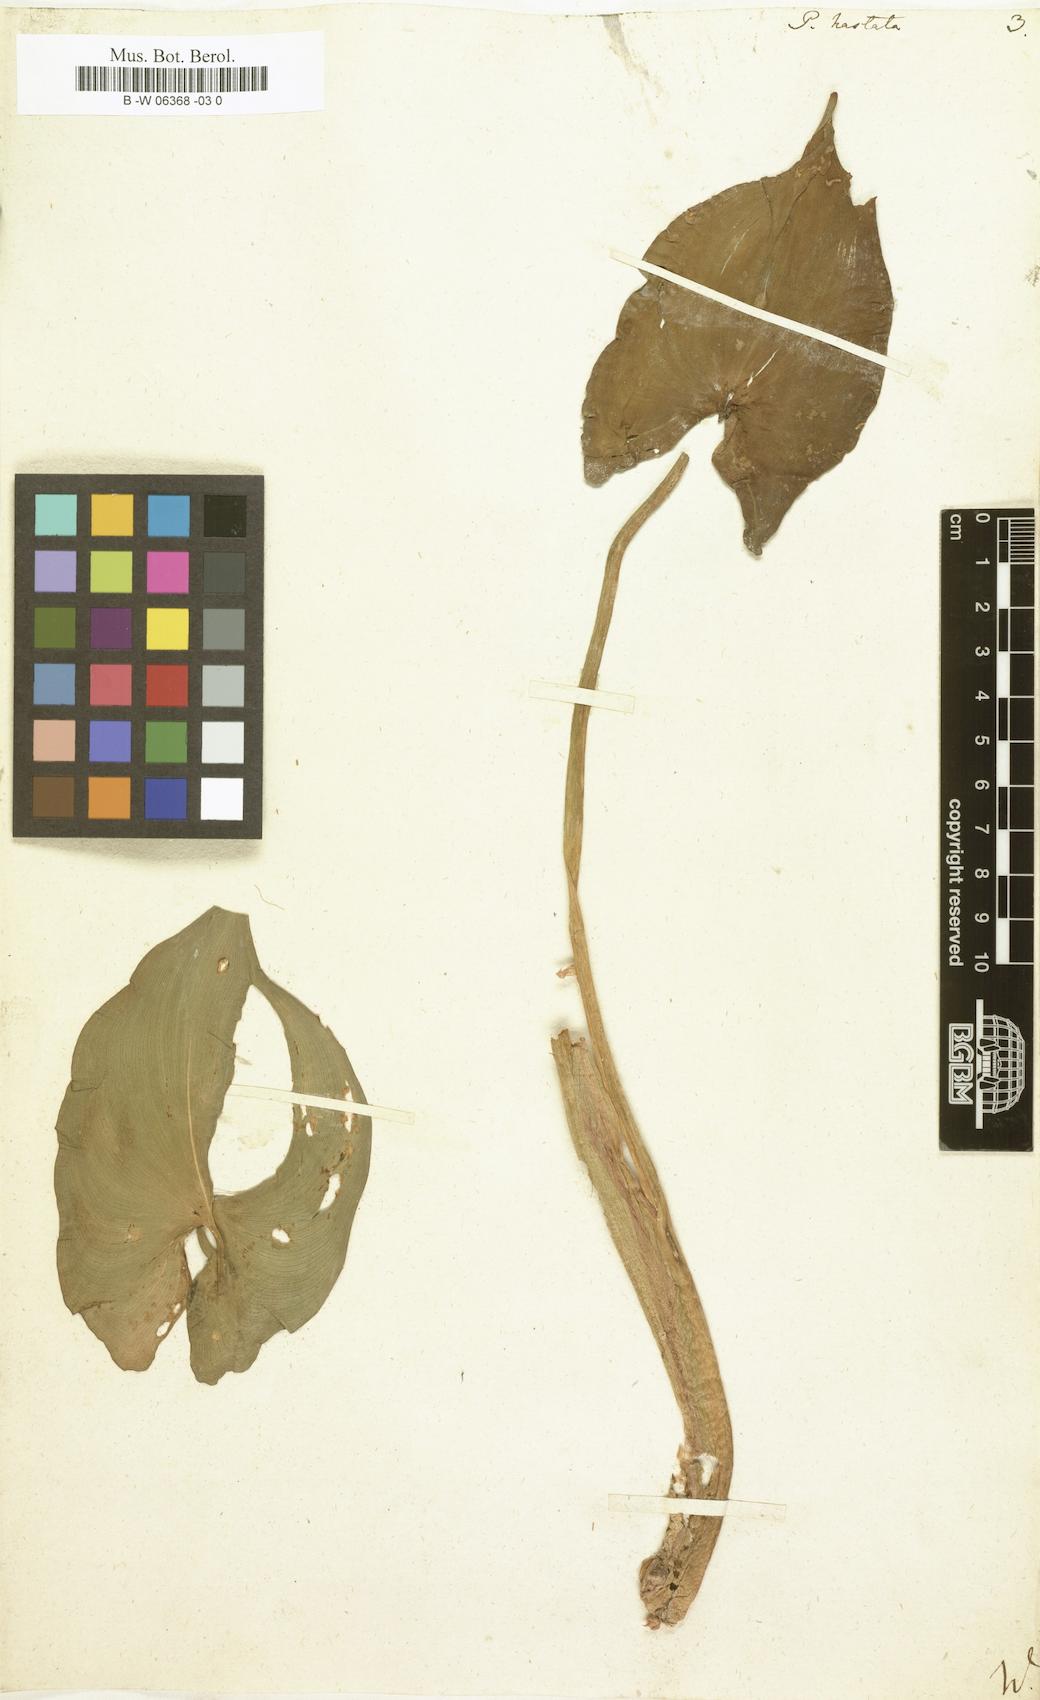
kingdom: Plantae
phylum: Tracheophyta
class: Liliopsida
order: Commelinales
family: Pontederiaceae
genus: Pontederia
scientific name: Pontederia hastata
